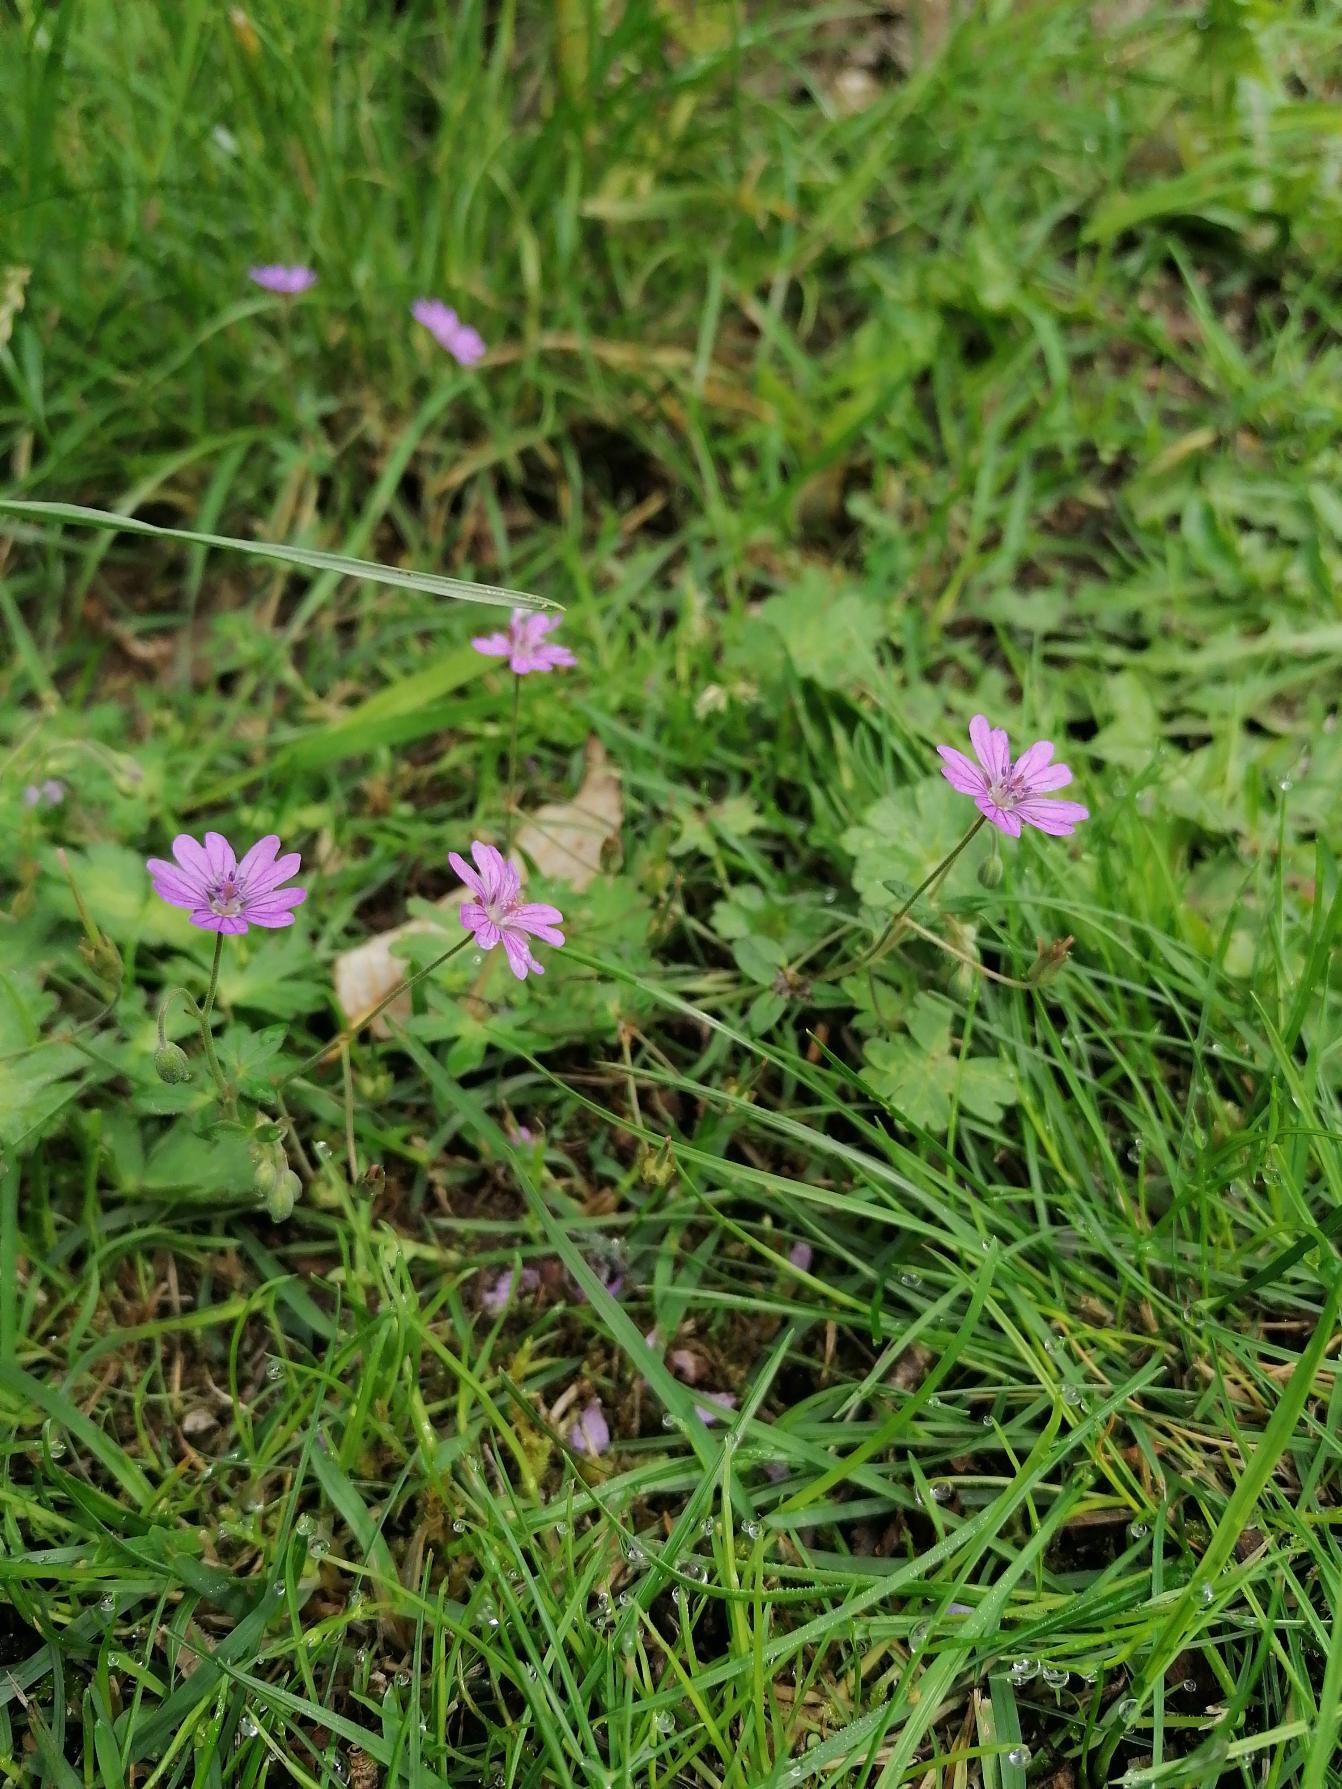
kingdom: Plantae
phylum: Tracheophyta
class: Magnoliopsida
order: Geraniales
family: Geraniaceae
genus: Geranium
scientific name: Geranium pyrenaicum
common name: Pyrenæisk storkenæb
